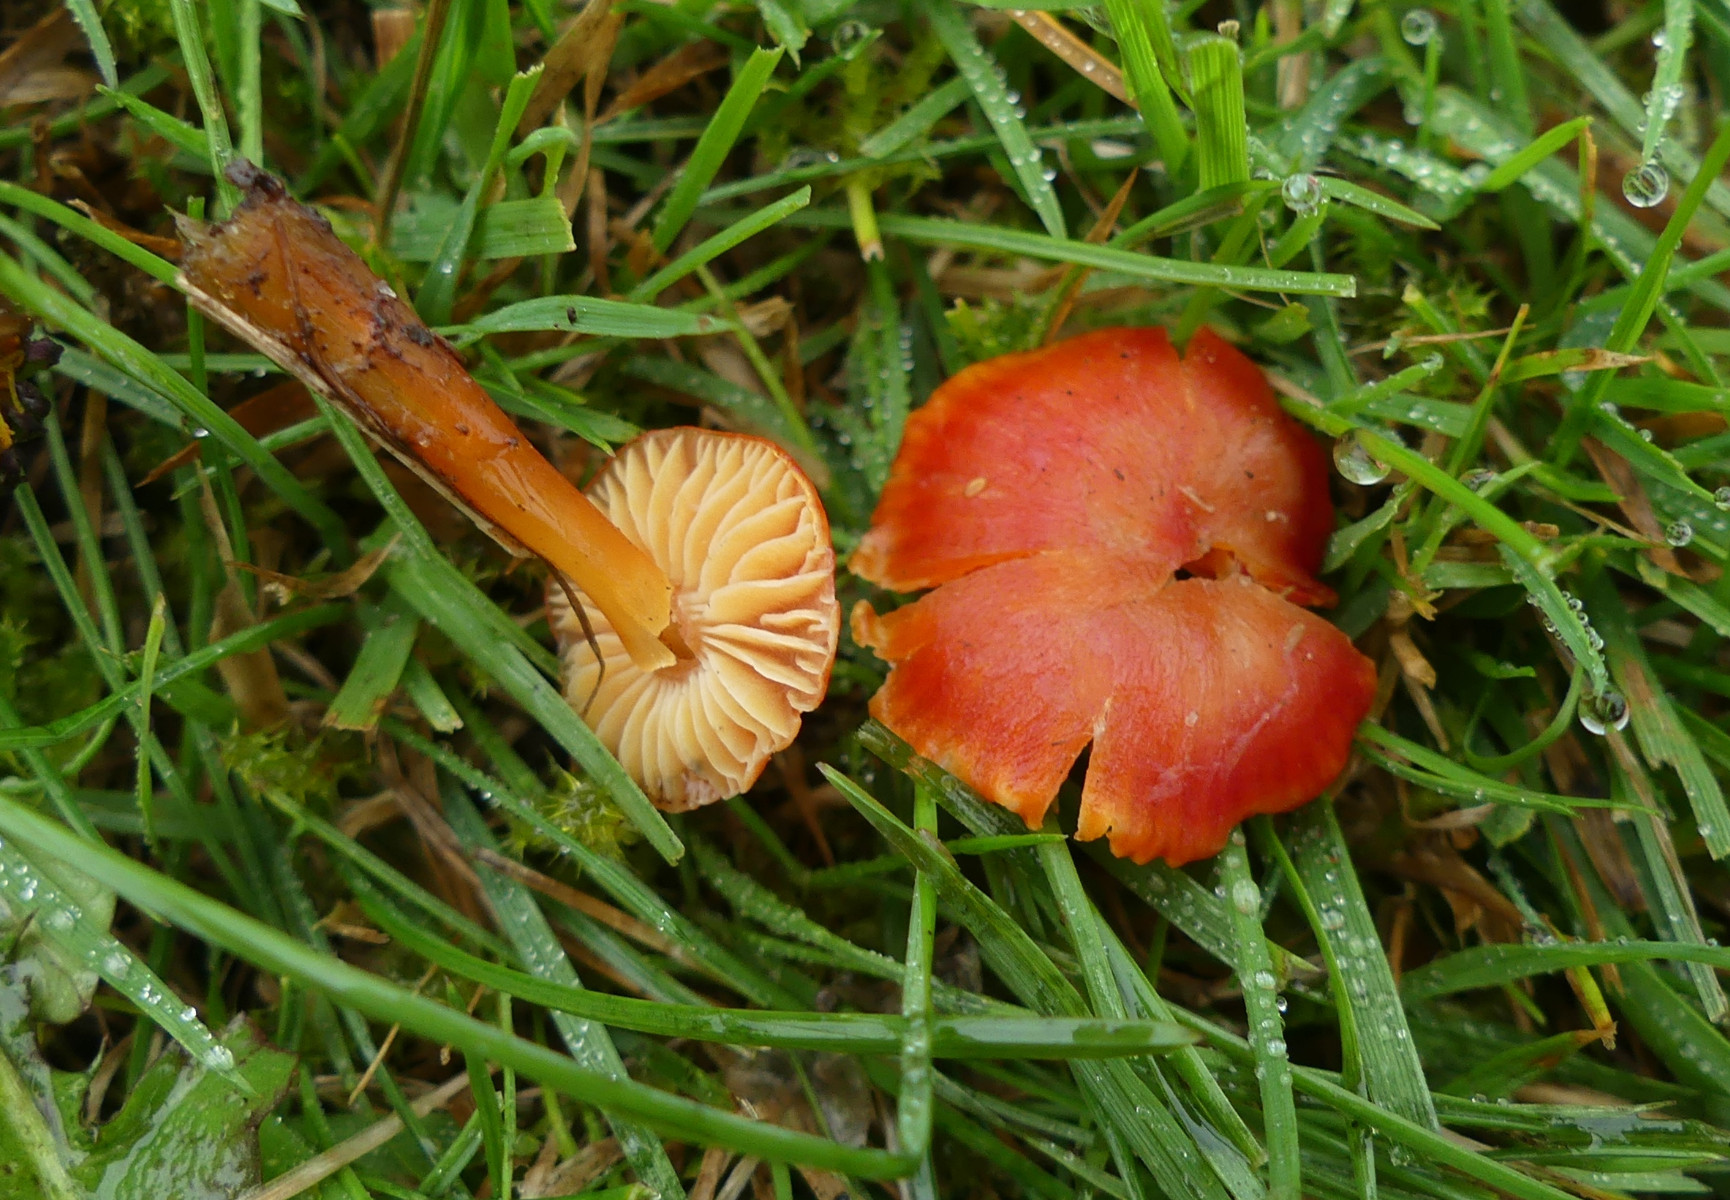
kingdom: Fungi
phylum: Basidiomycota
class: Agaricomycetes
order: Agaricales
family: Hygrophoraceae
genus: Hygrocybe
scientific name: Hygrocybe
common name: vokshat
